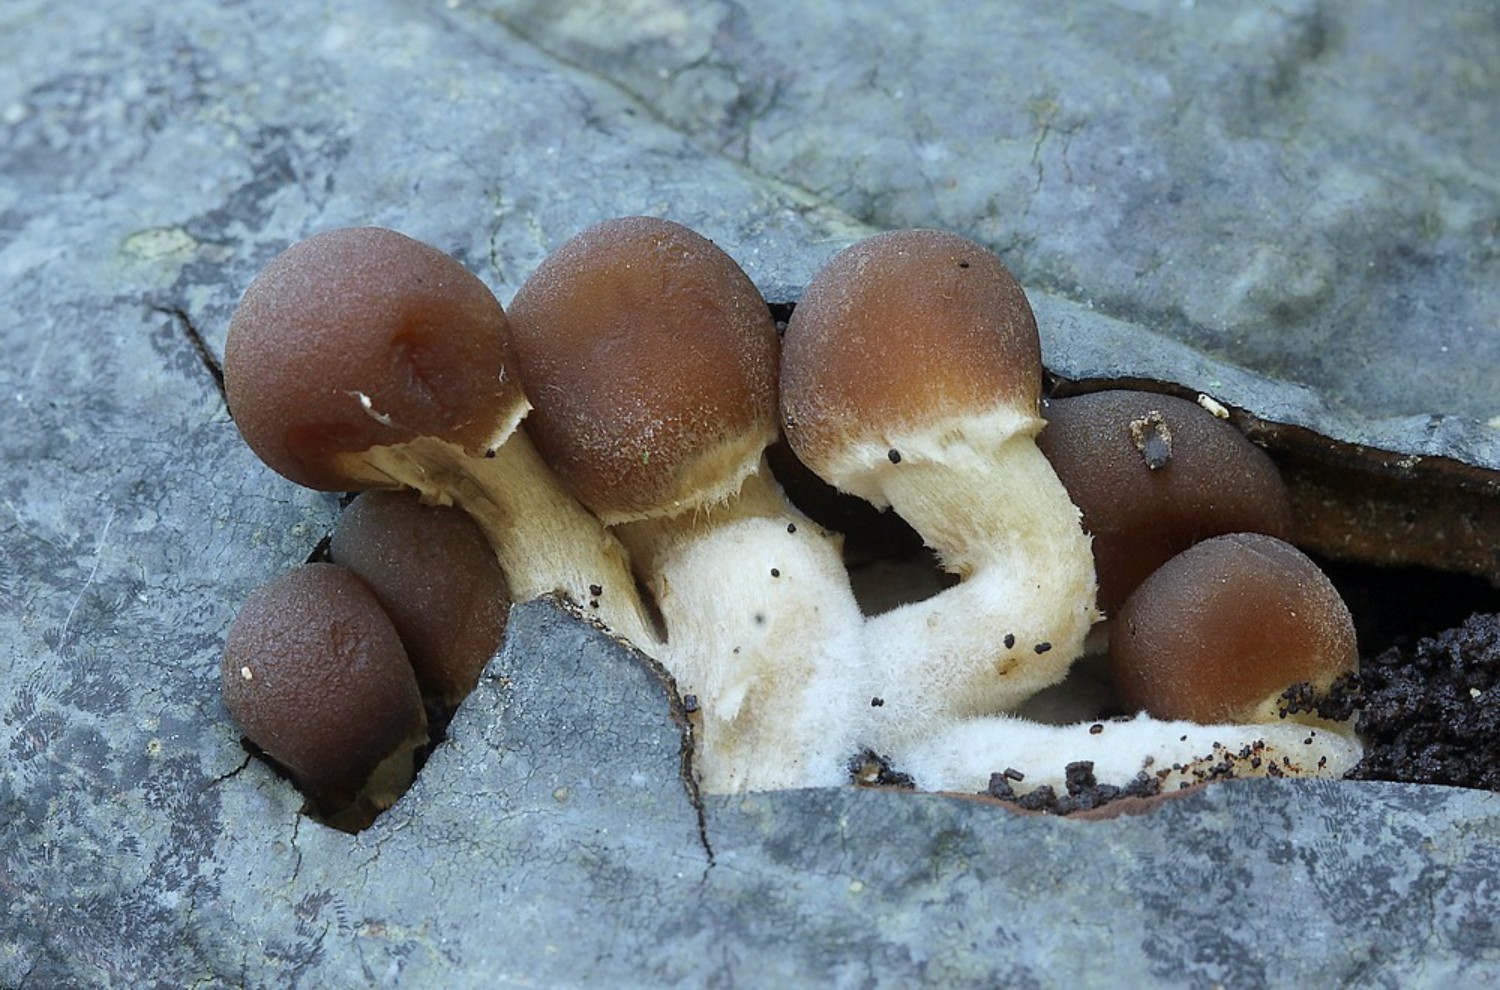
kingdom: Fungi
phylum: Basidiomycota
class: Agaricomycetes
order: Agaricales
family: Psathyrellaceae
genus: Psathyrella
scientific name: Psathyrella
